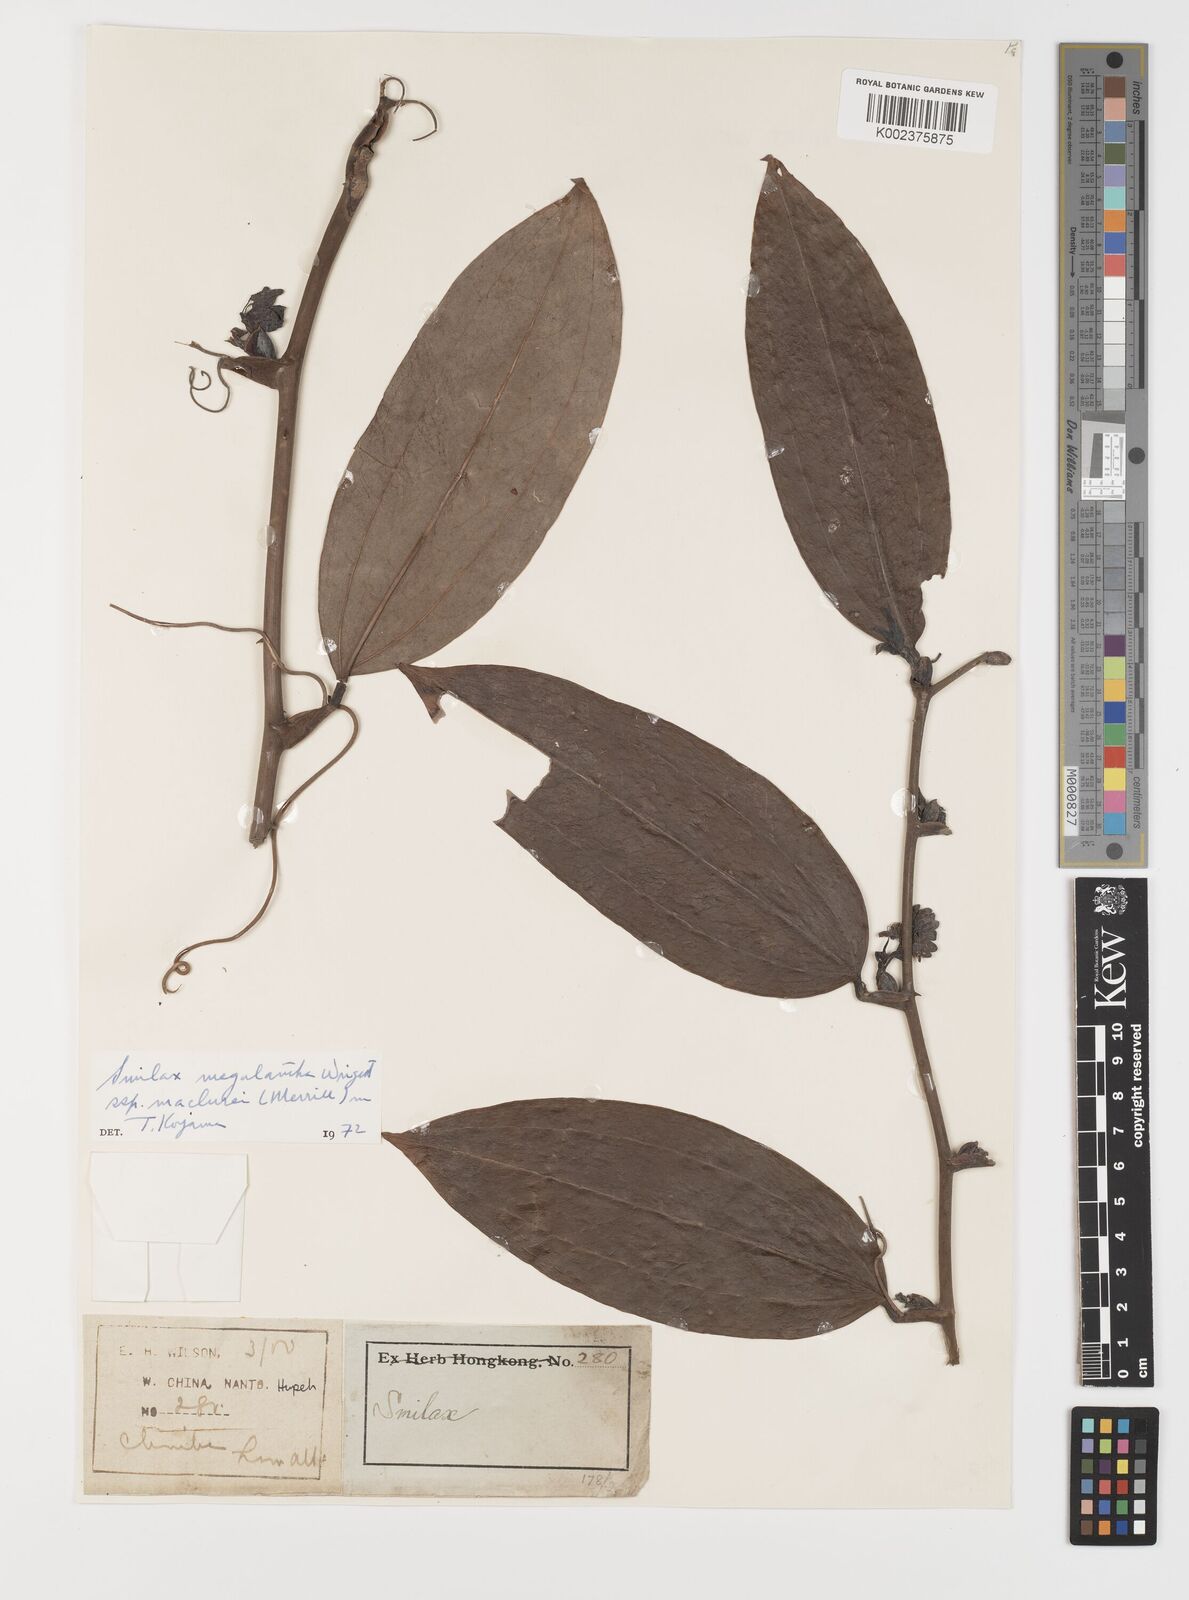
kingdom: Plantae
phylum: Tracheophyta
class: Liliopsida
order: Liliales
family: Smilacaceae
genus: Smilax
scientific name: Smilax megalantha
